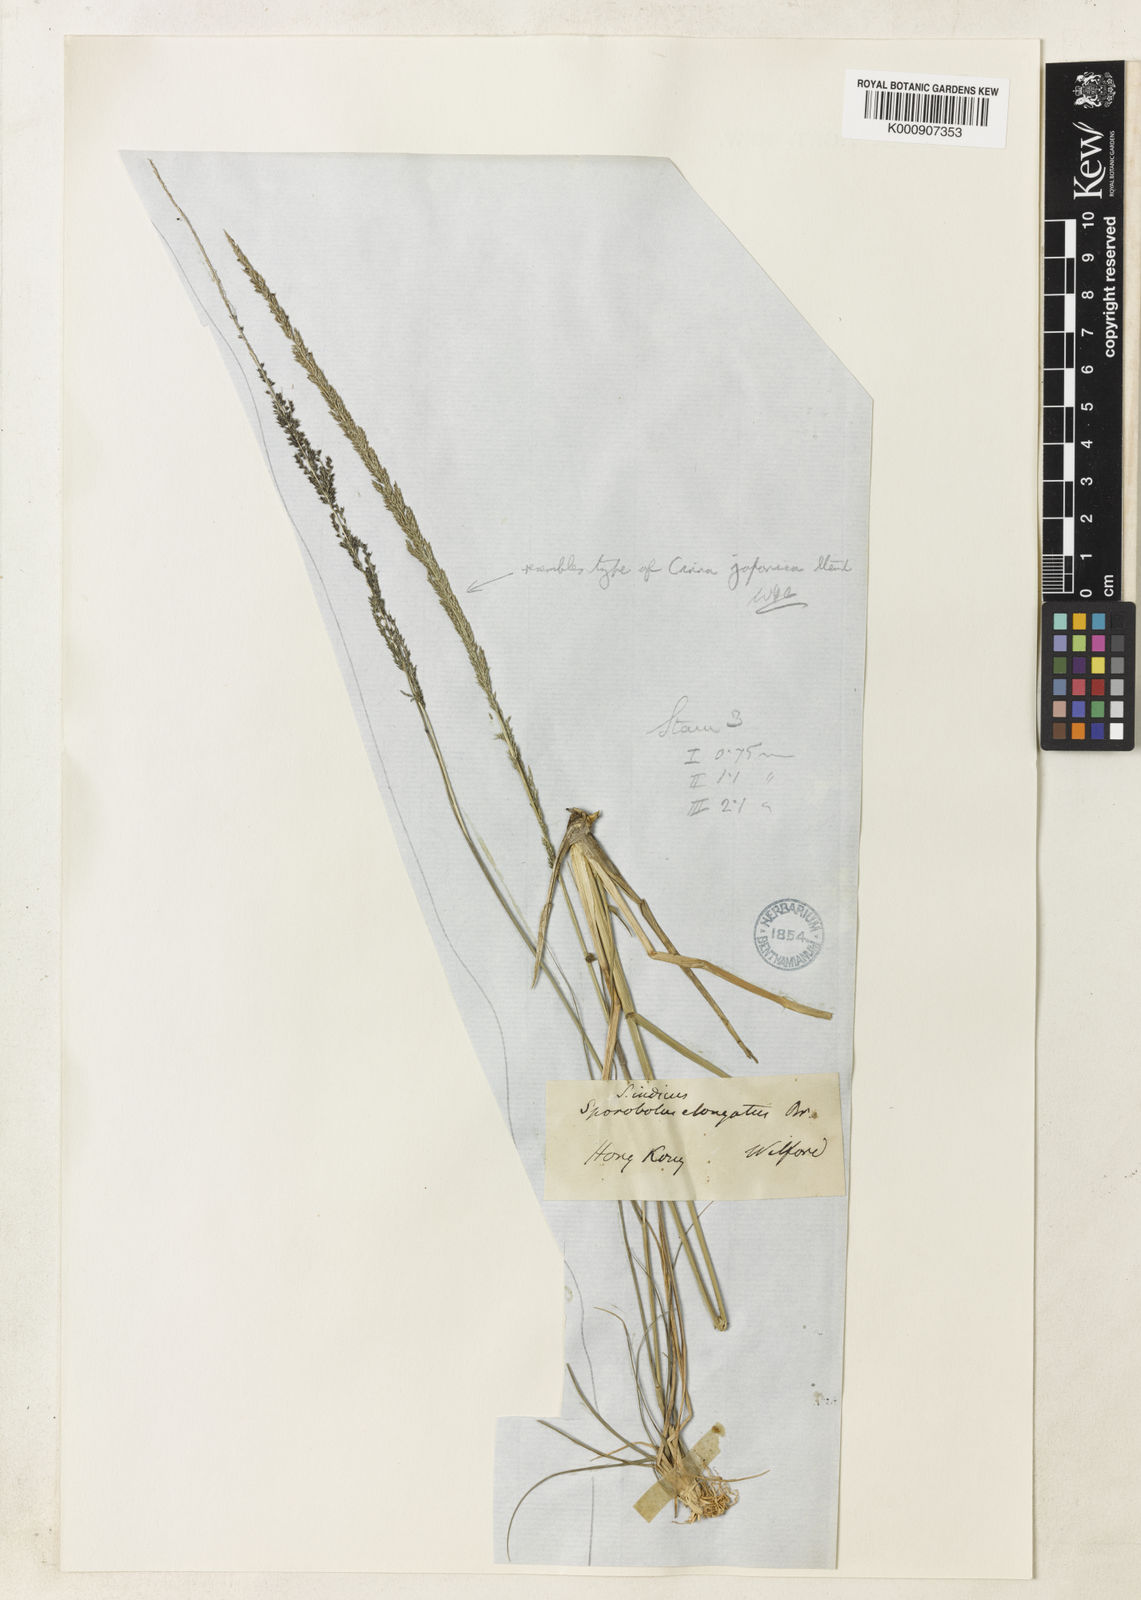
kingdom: Plantae
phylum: Tracheophyta
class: Liliopsida
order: Poales
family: Poaceae
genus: Sporobolus
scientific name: Sporobolus fertilis
